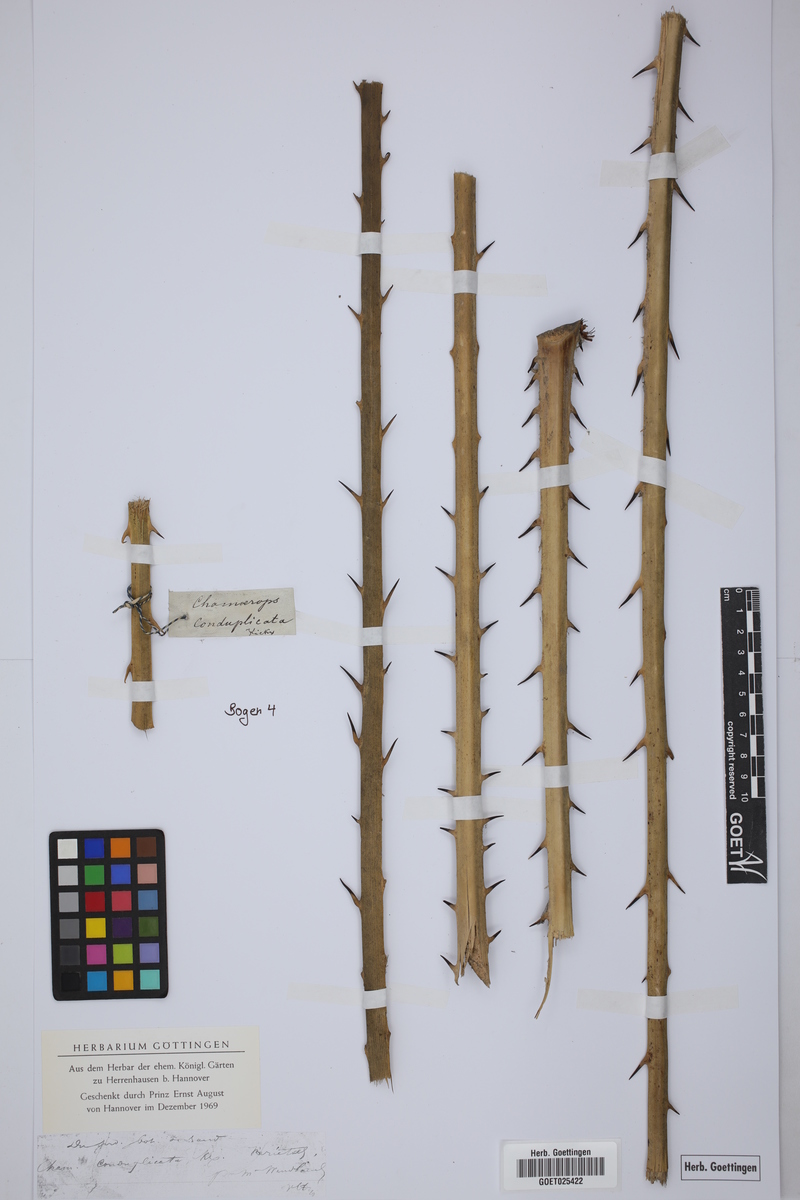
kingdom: Plantae
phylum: Tracheophyta
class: Liliopsida
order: Arecales
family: Arecaceae
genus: Chamaerops
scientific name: Chamaerops humilis
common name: Dwarf fan palm
